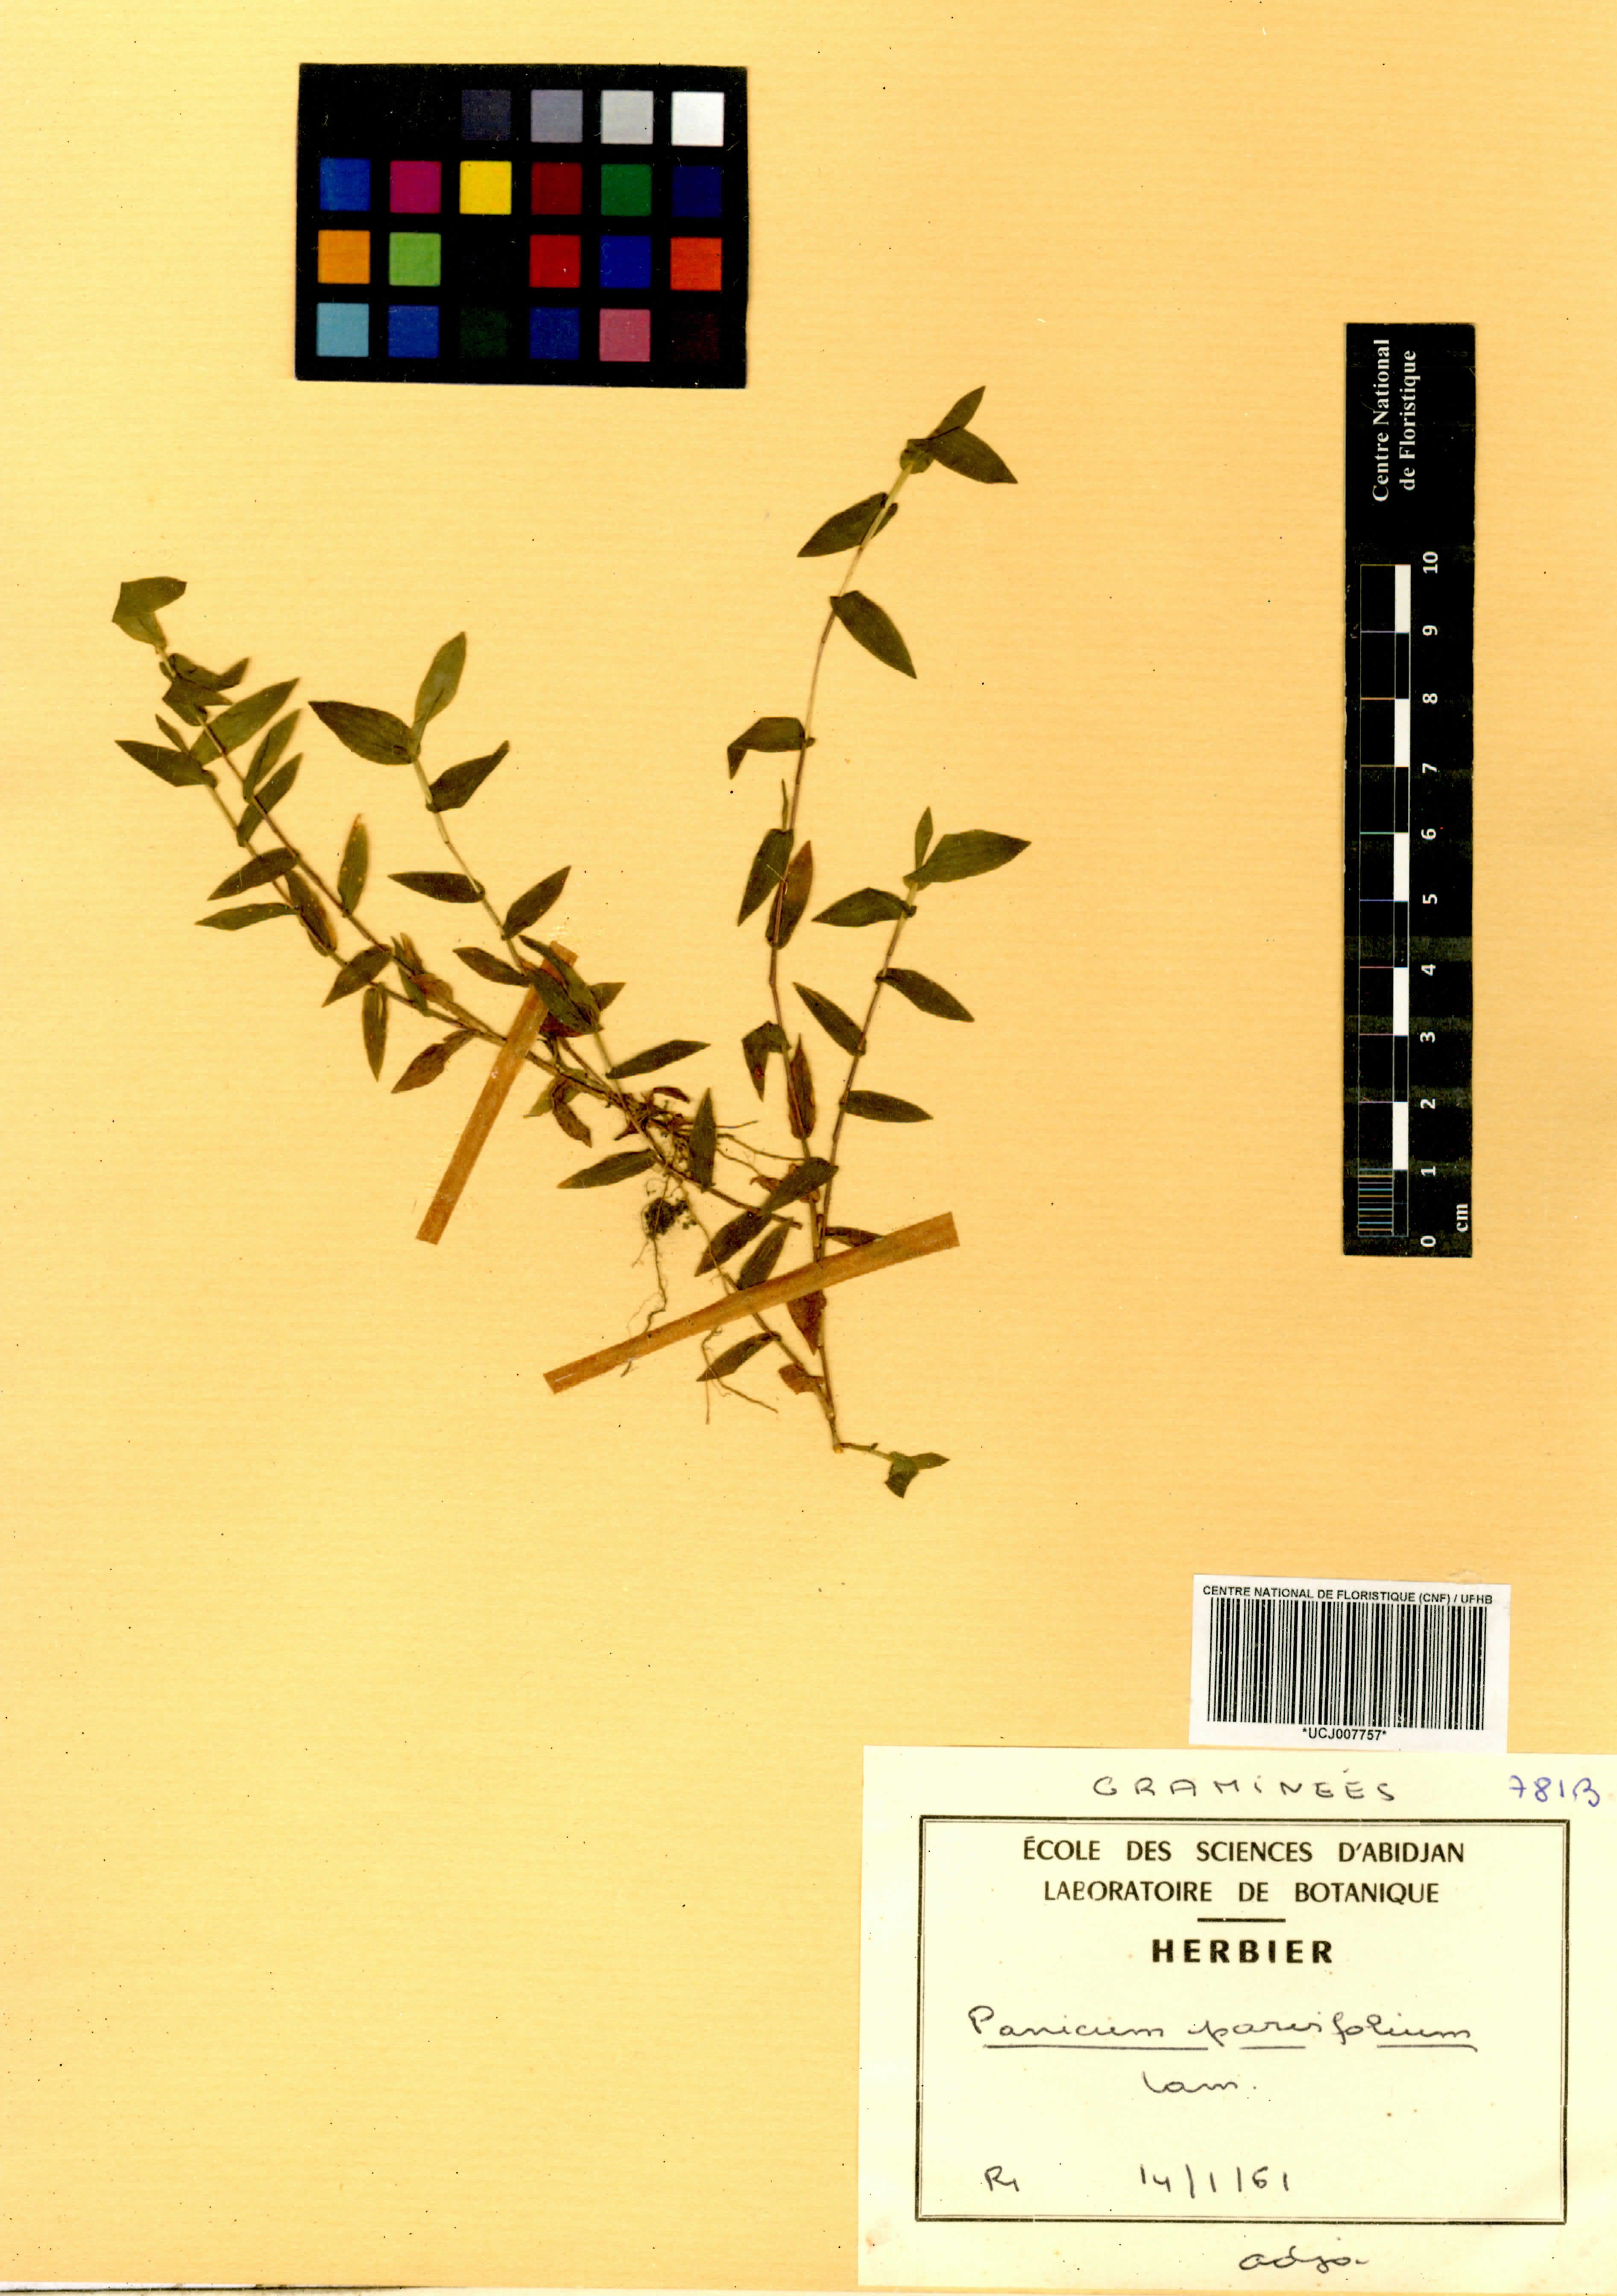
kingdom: Plantae
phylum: Tracheophyta
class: Liliopsida
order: Poales
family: Poaceae
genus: Trichanthecium
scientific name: Trichanthecium parvifolium
